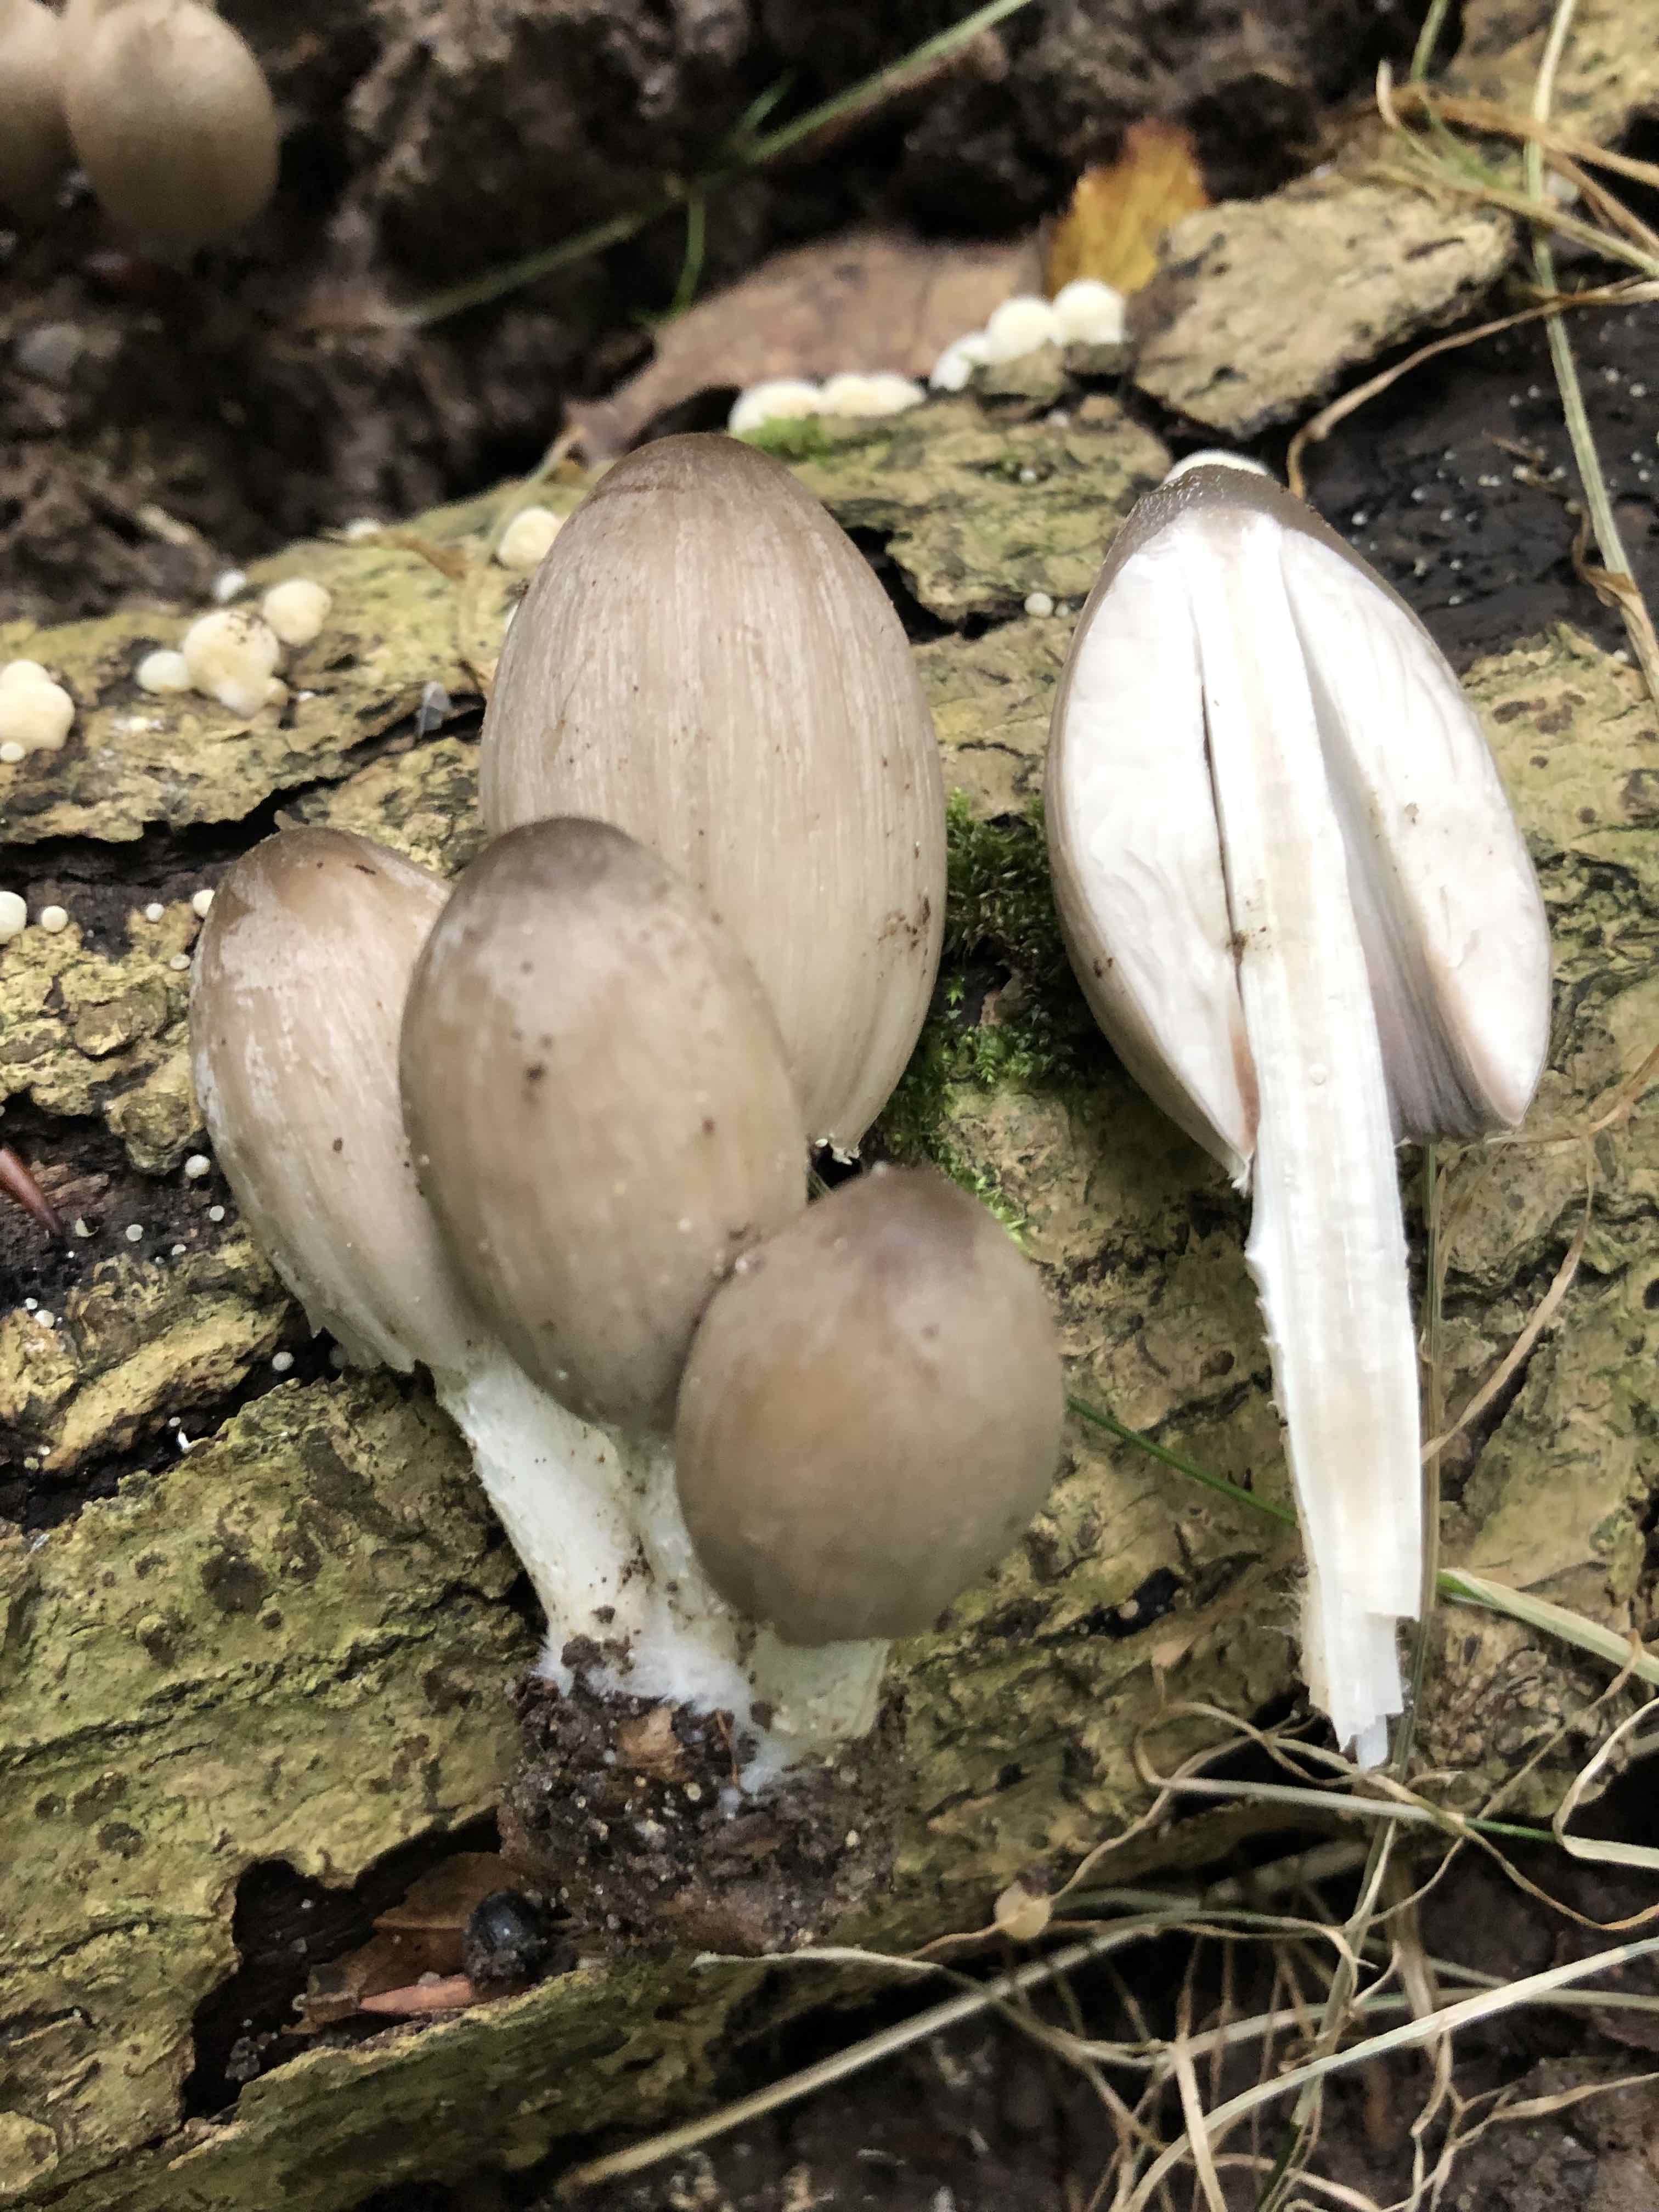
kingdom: Fungi
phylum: Basidiomycota
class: Agaricomycetes
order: Agaricales
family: Psathyrellaceae
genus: Coprinopsis
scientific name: Coprinopsis acuminata
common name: kegle-blækhat
